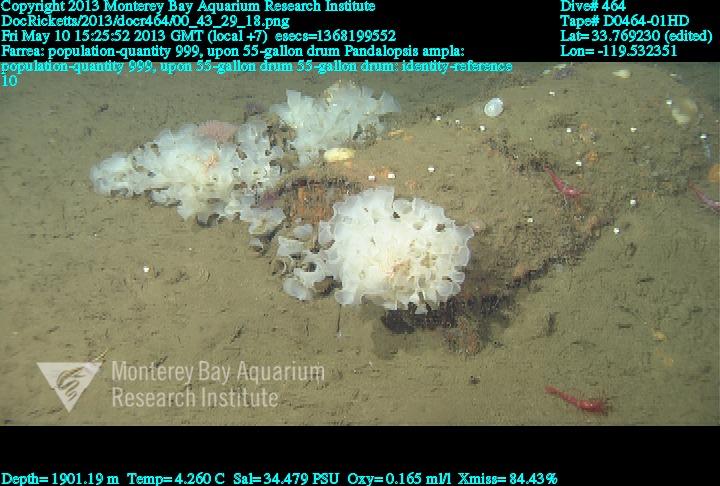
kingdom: Animalia
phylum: Porifera
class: Hexactinellida
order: Sceptrulophora
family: Farreidae
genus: Farrea
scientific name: Farrea
